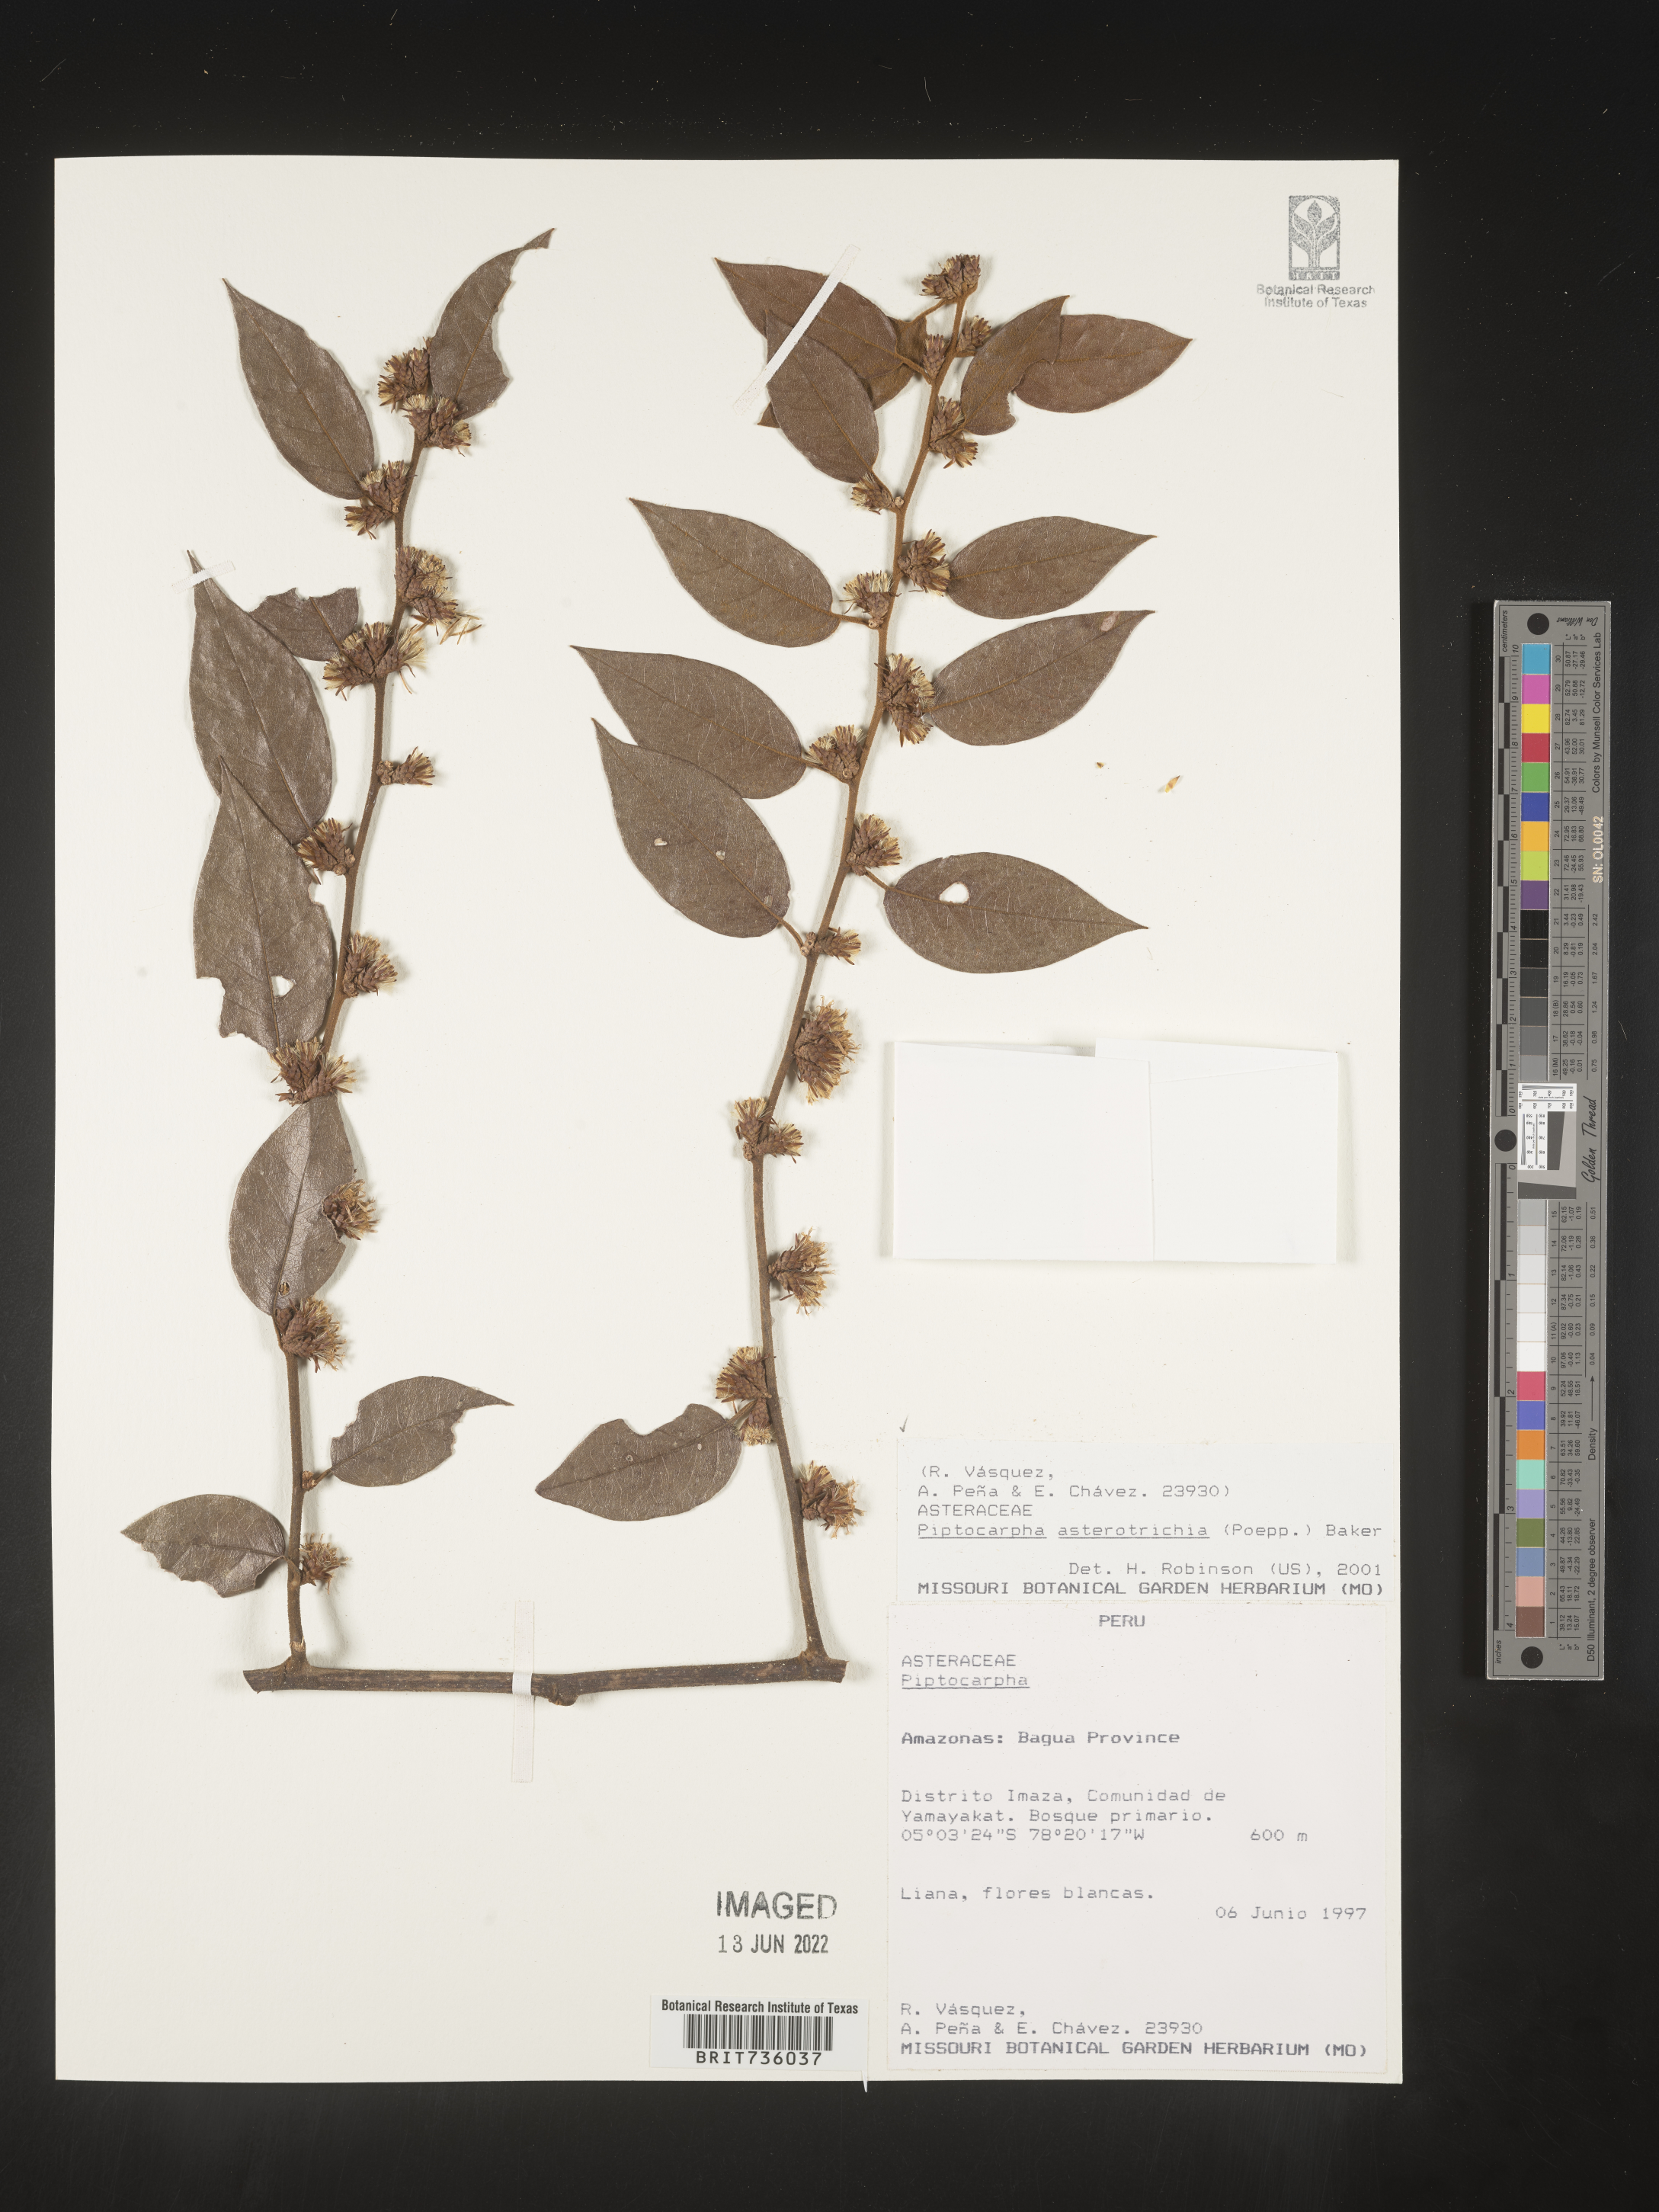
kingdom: Plantae
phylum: Tracheophyta
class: Magnoliopsida
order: Asterales
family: Asteraceae
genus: Piptocarpha
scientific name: Piptocarpha
